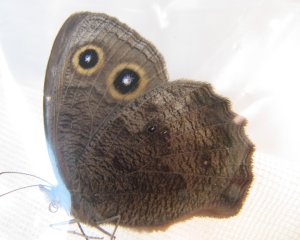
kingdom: Animalia
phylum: Arthropoda
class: Insecta
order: Lepidoptera
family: Nymphalidae
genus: Cercyonis
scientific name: Cercyonis pegala
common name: Common Wood-Nymph
